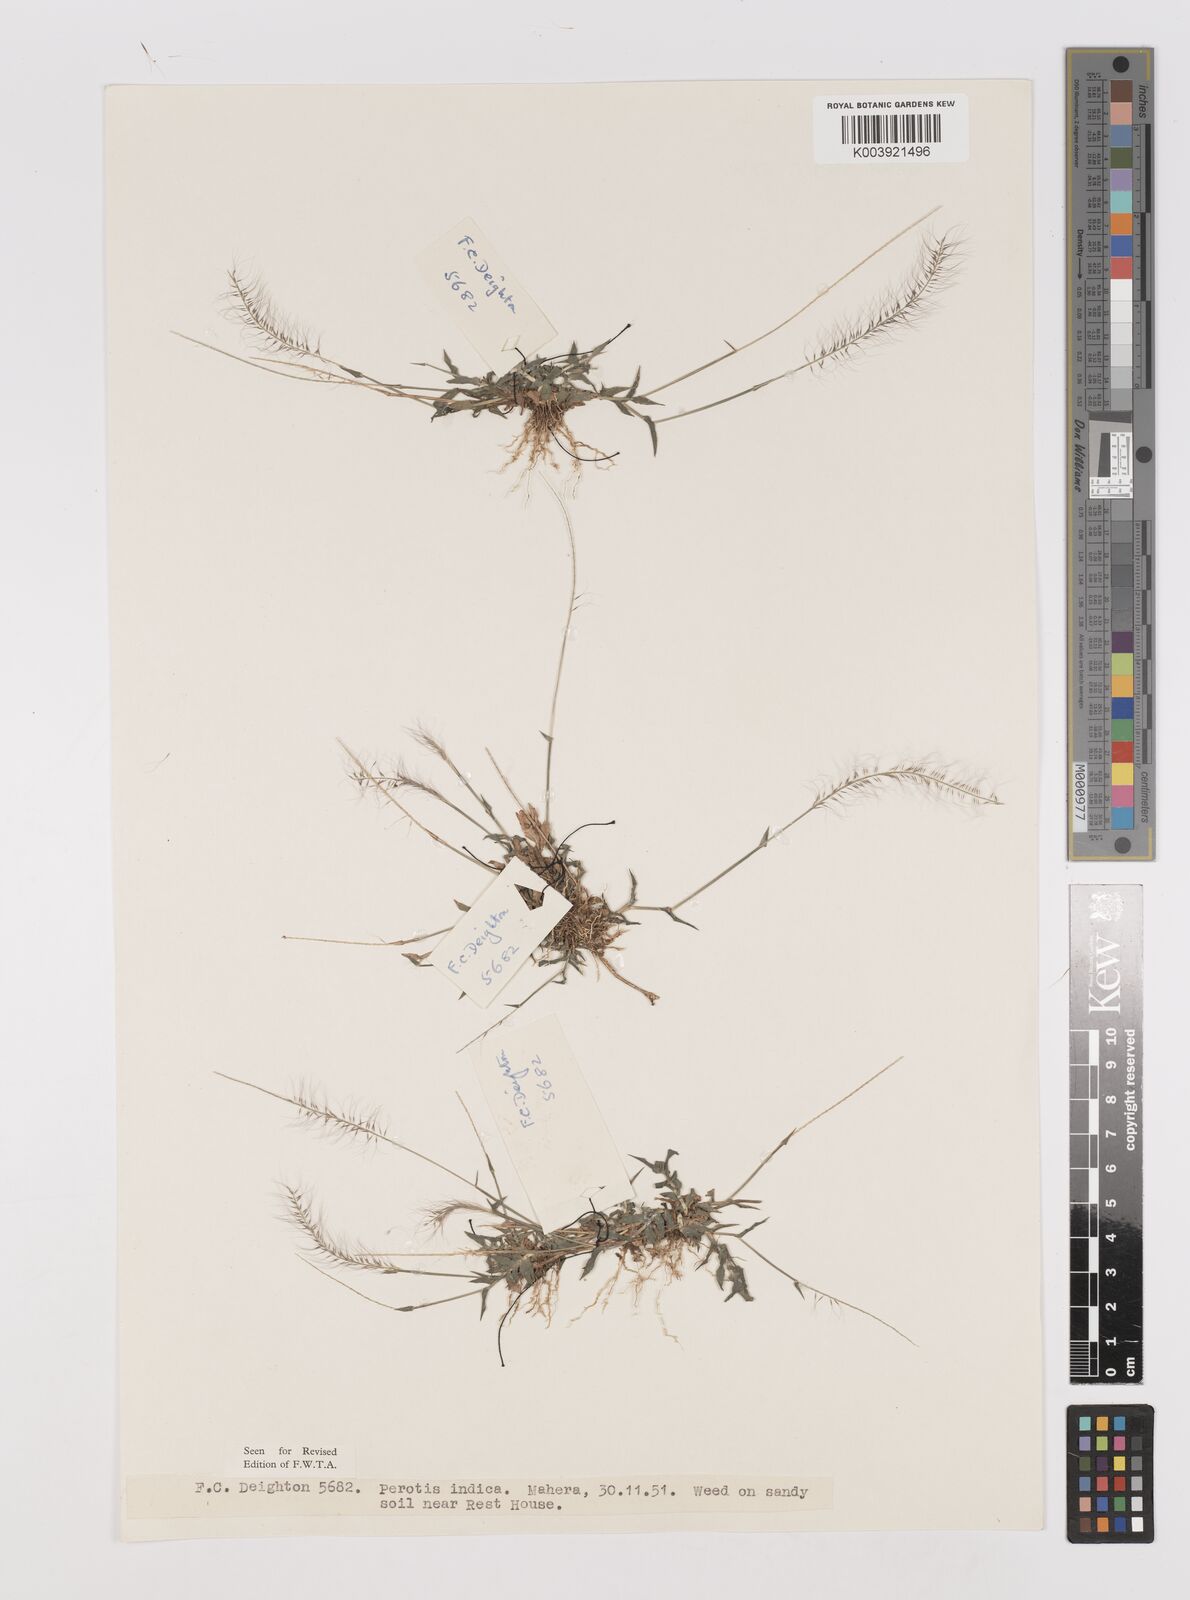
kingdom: Plantae
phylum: Tracheophyta
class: Liliopsida
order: Poales
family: Poaceae
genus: Perotis
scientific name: Perotis indica
